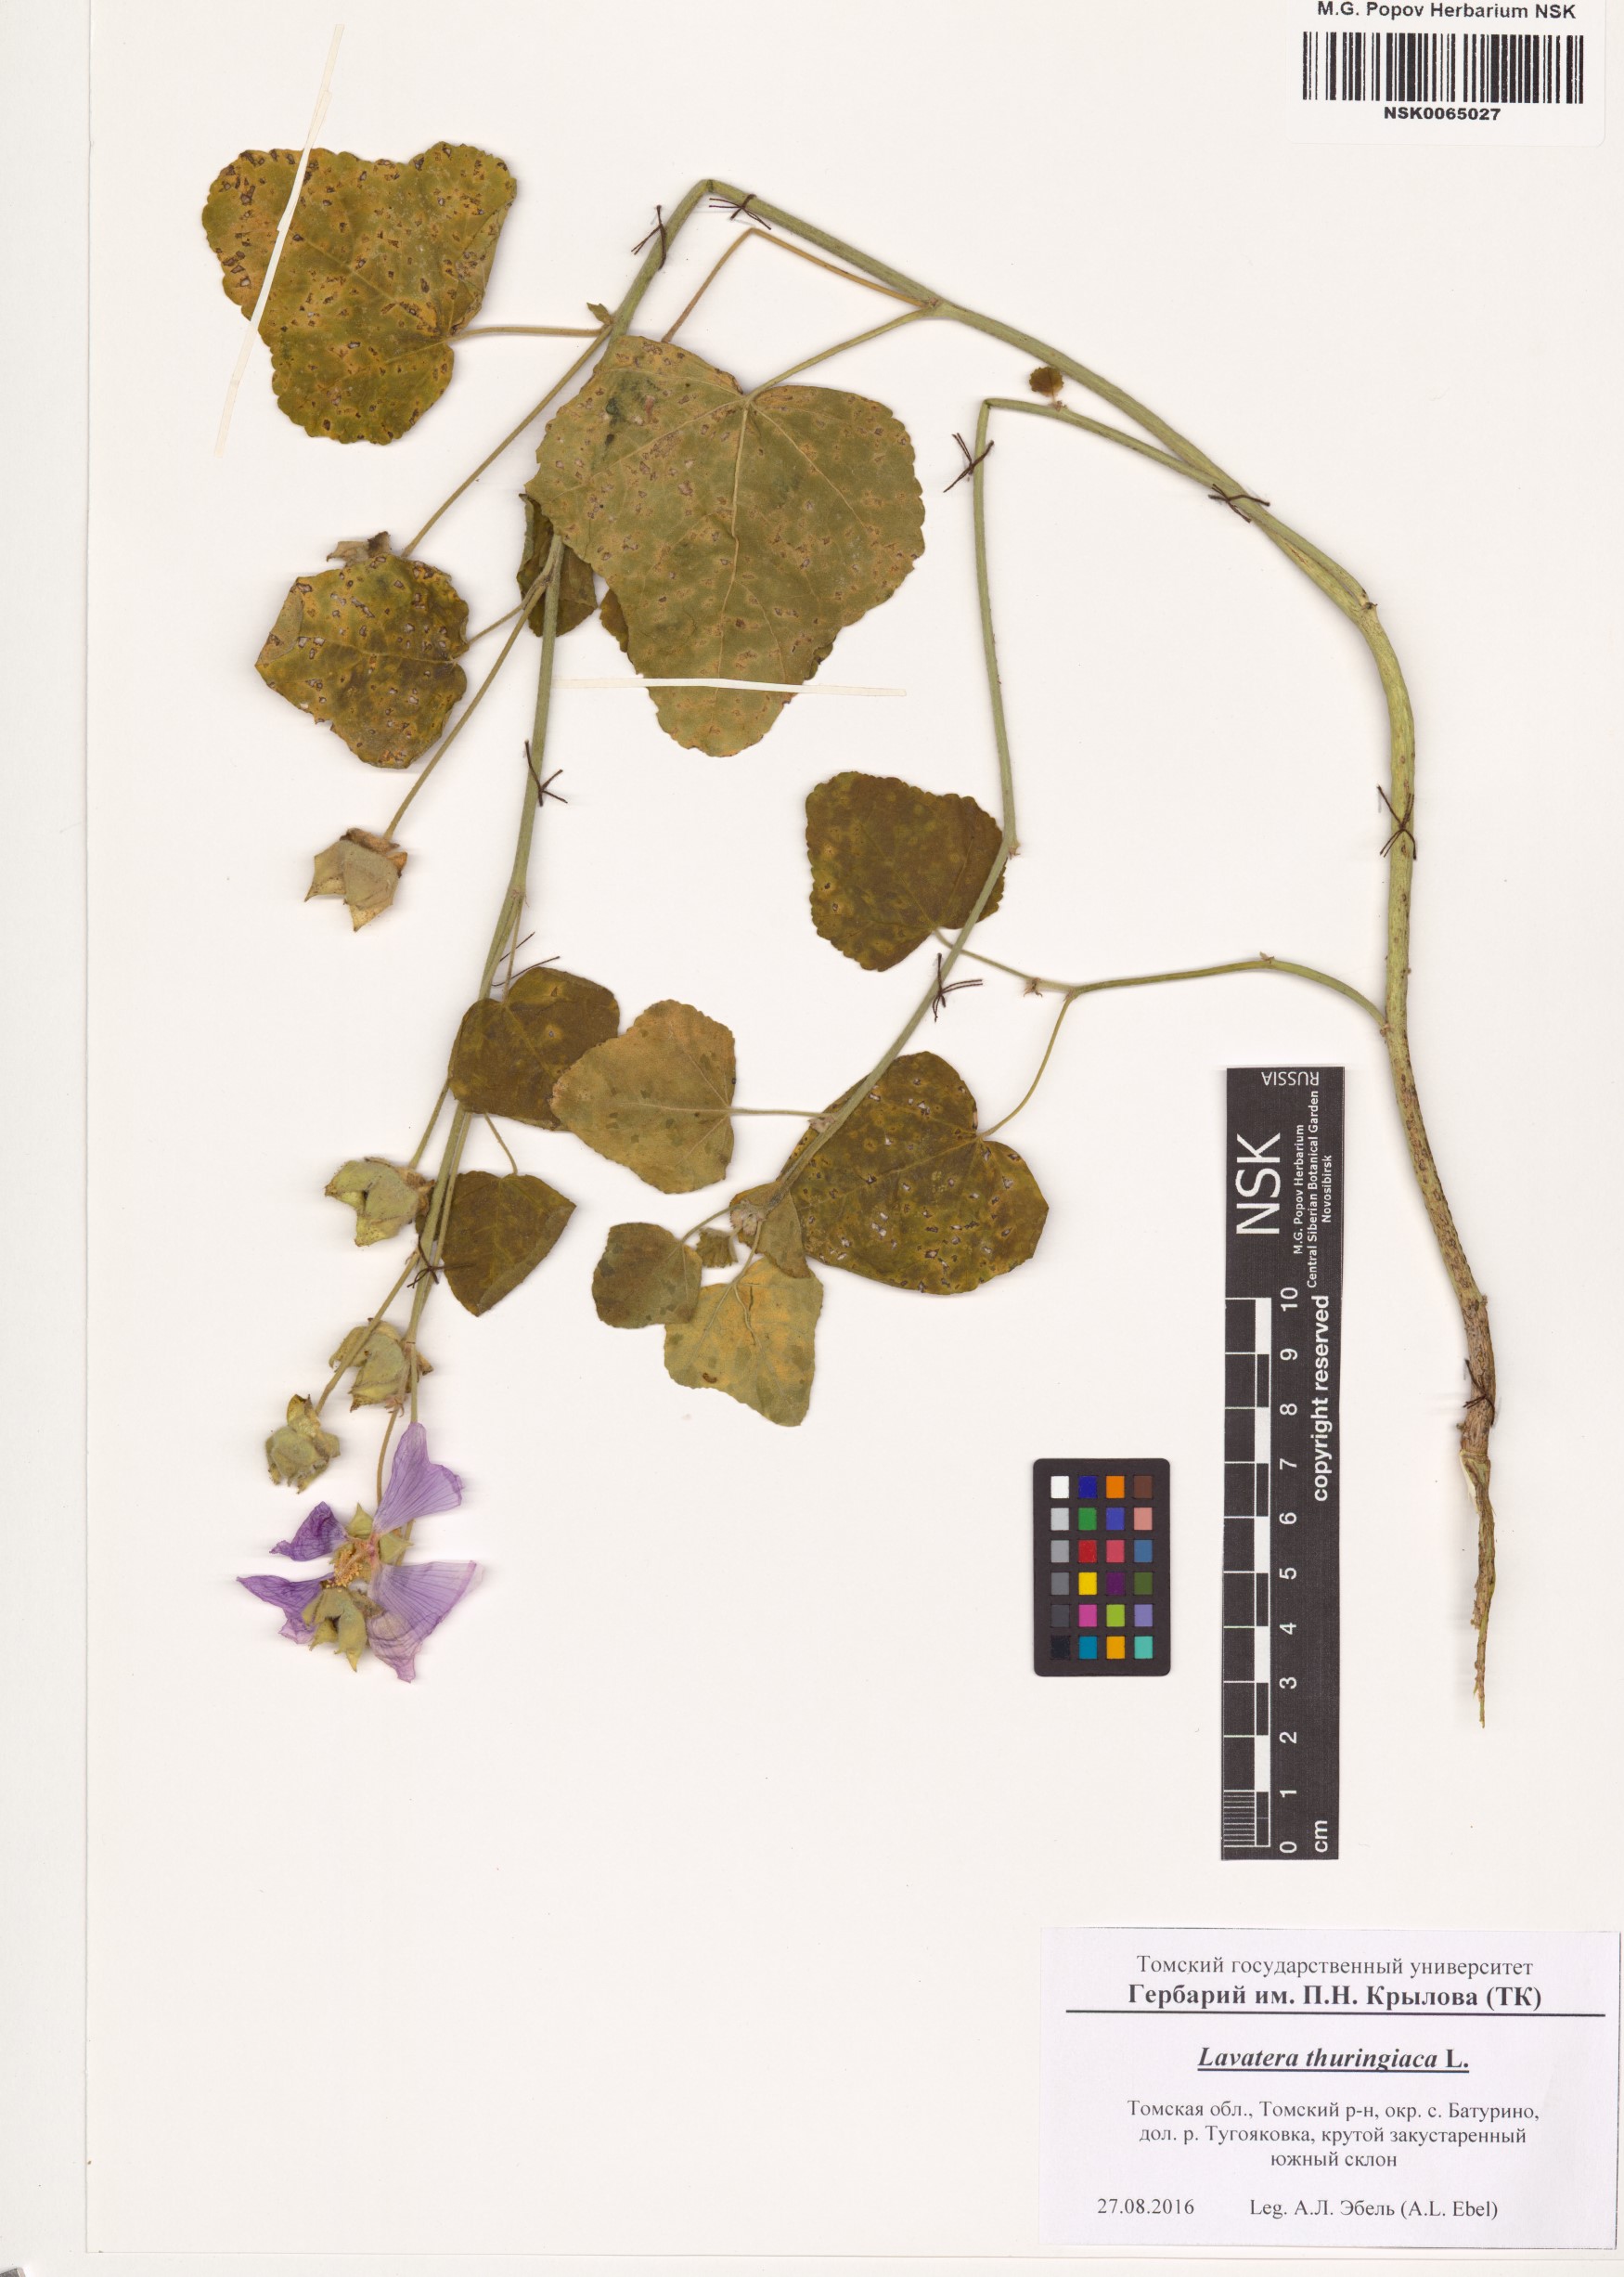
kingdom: Plantae
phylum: Tracheophyta
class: Magnoliopsida
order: Malvales
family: Malvaceae
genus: Malva
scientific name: Malva thuringiaca
